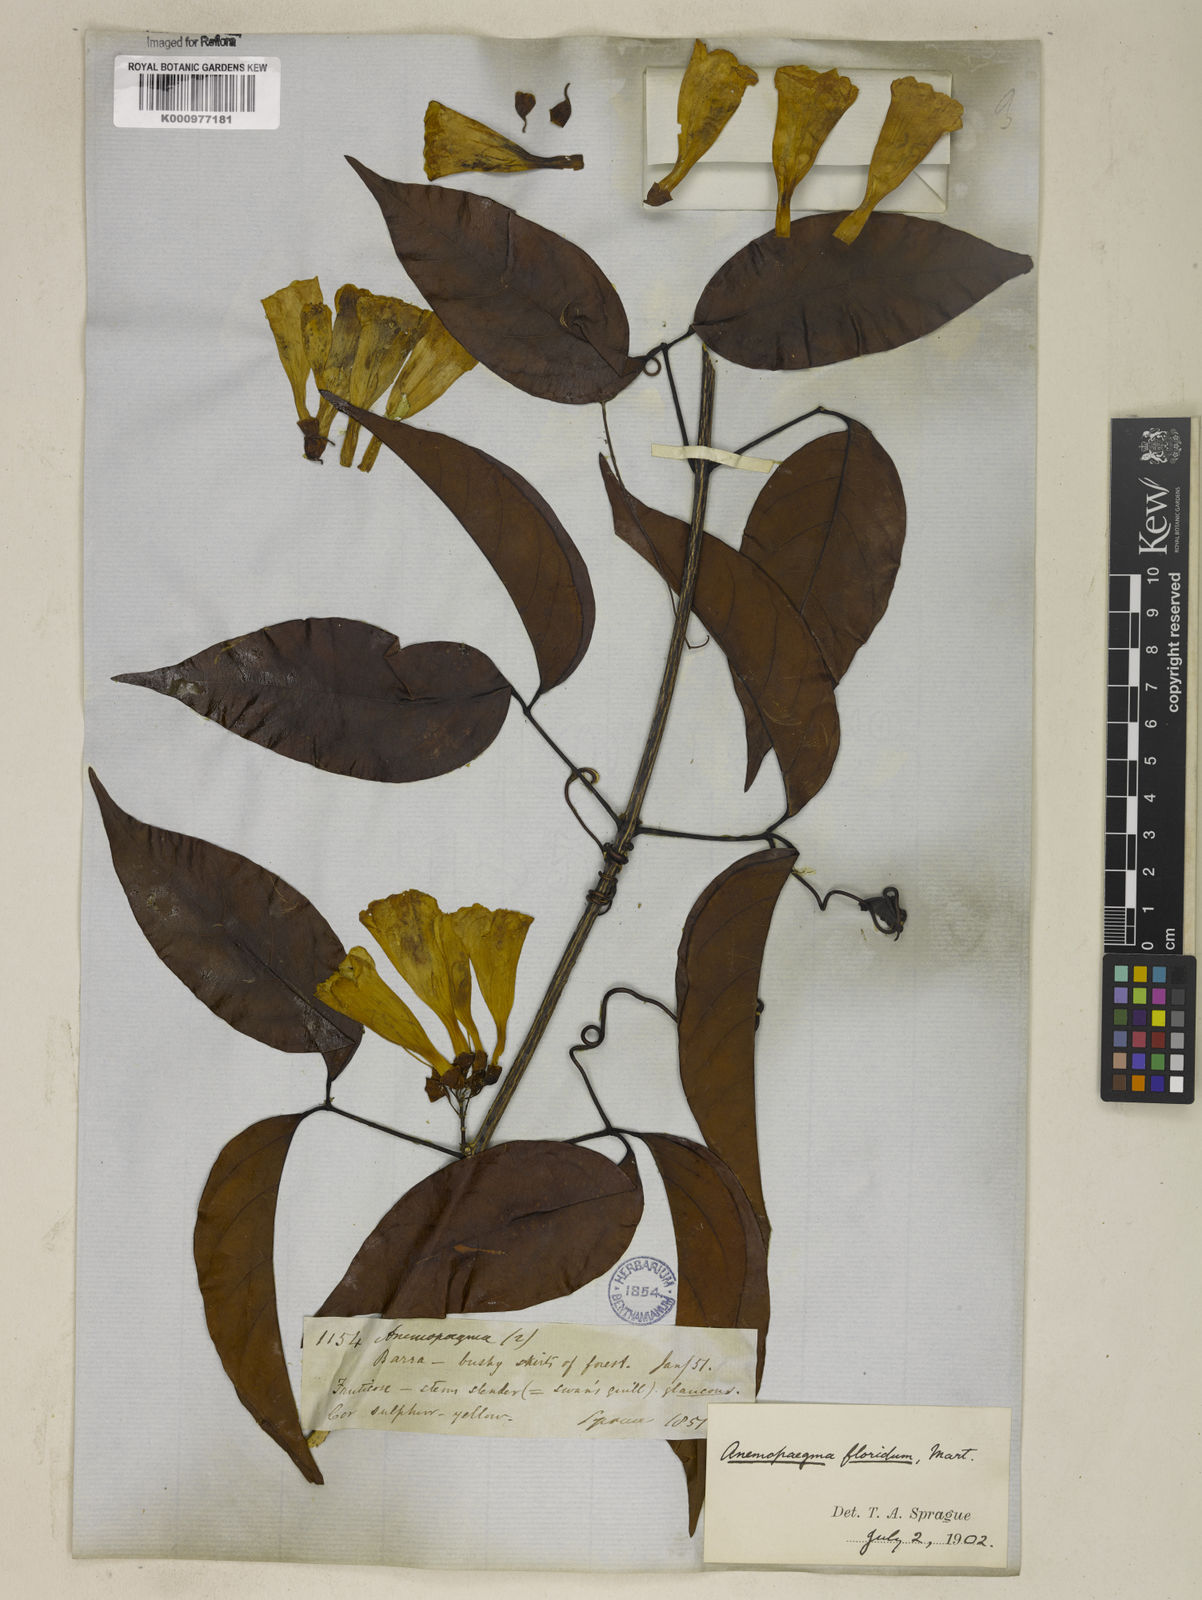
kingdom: Plantae
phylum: Tracheophyta
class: Magnoliopsida
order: Lamiales
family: Bignoniaceae
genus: Anemopaegma
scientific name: Anemopaegma floridum
